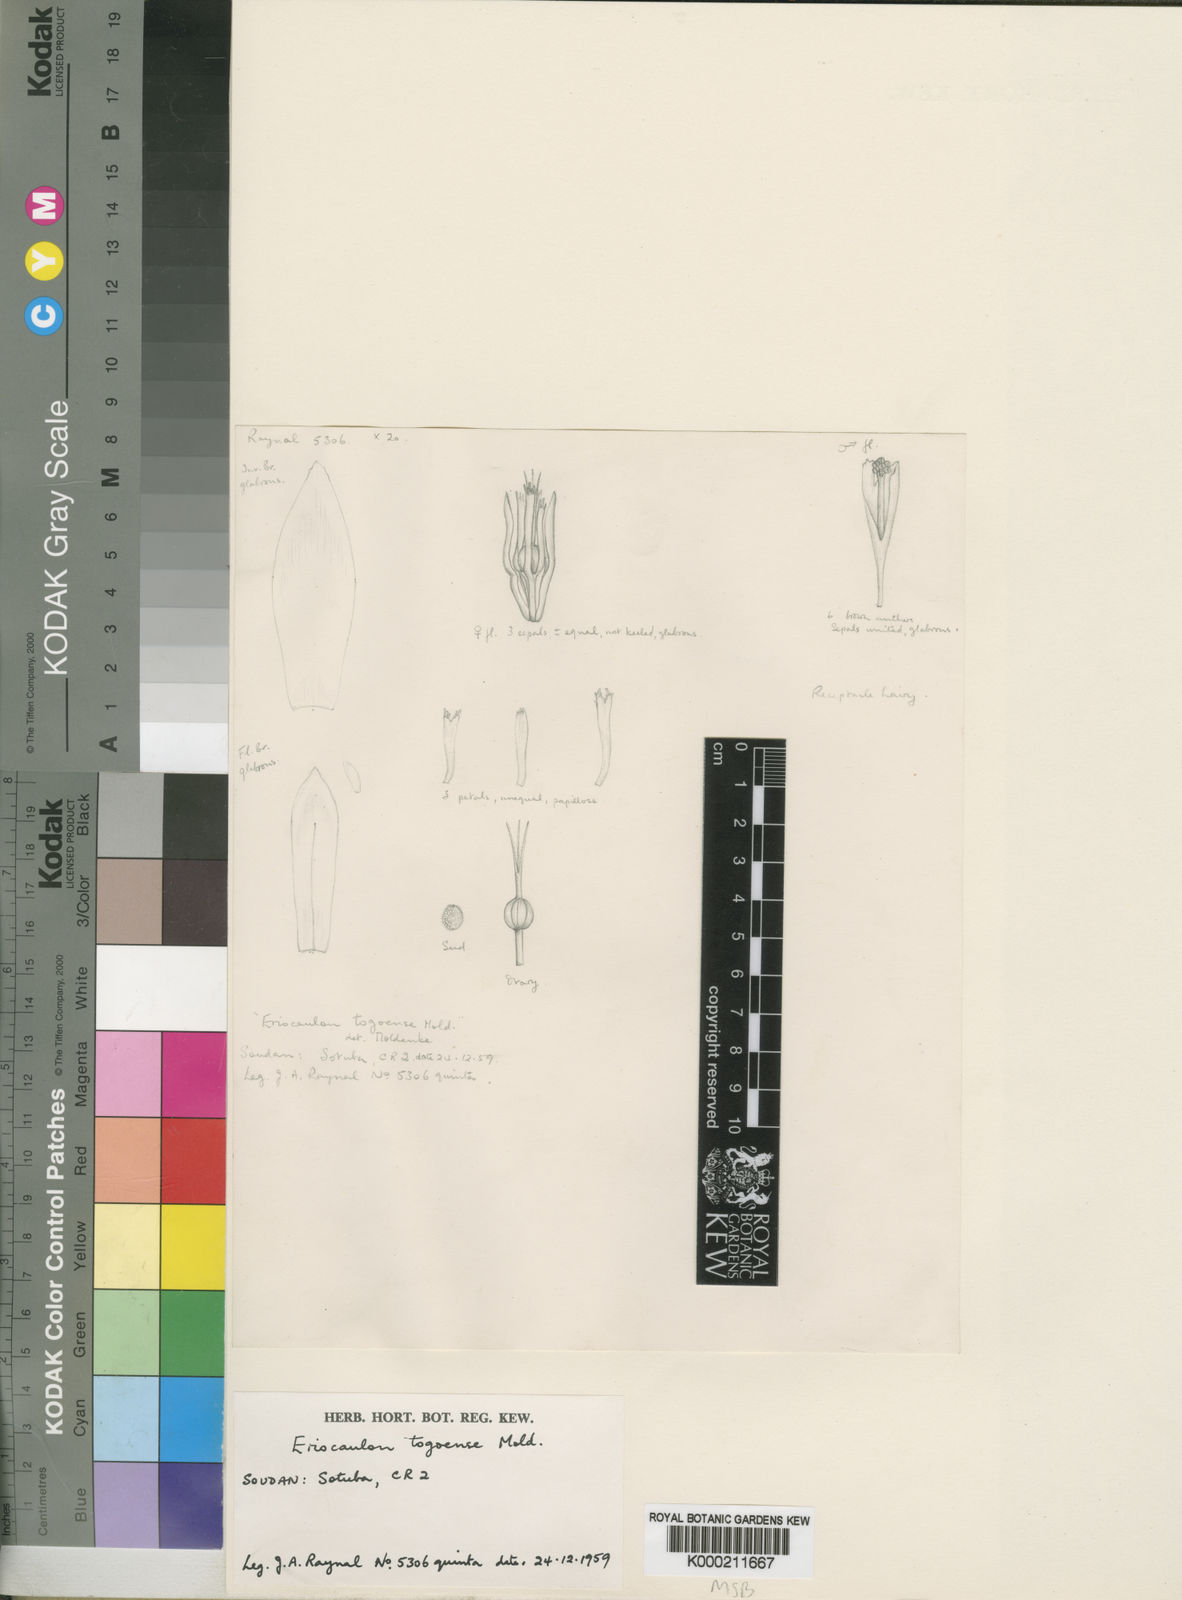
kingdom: Plantae
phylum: Tracheophyta
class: Liliopsida
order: Poales
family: Eriocaulaceae
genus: Eriocaulon
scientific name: Eriocaulon togoense
